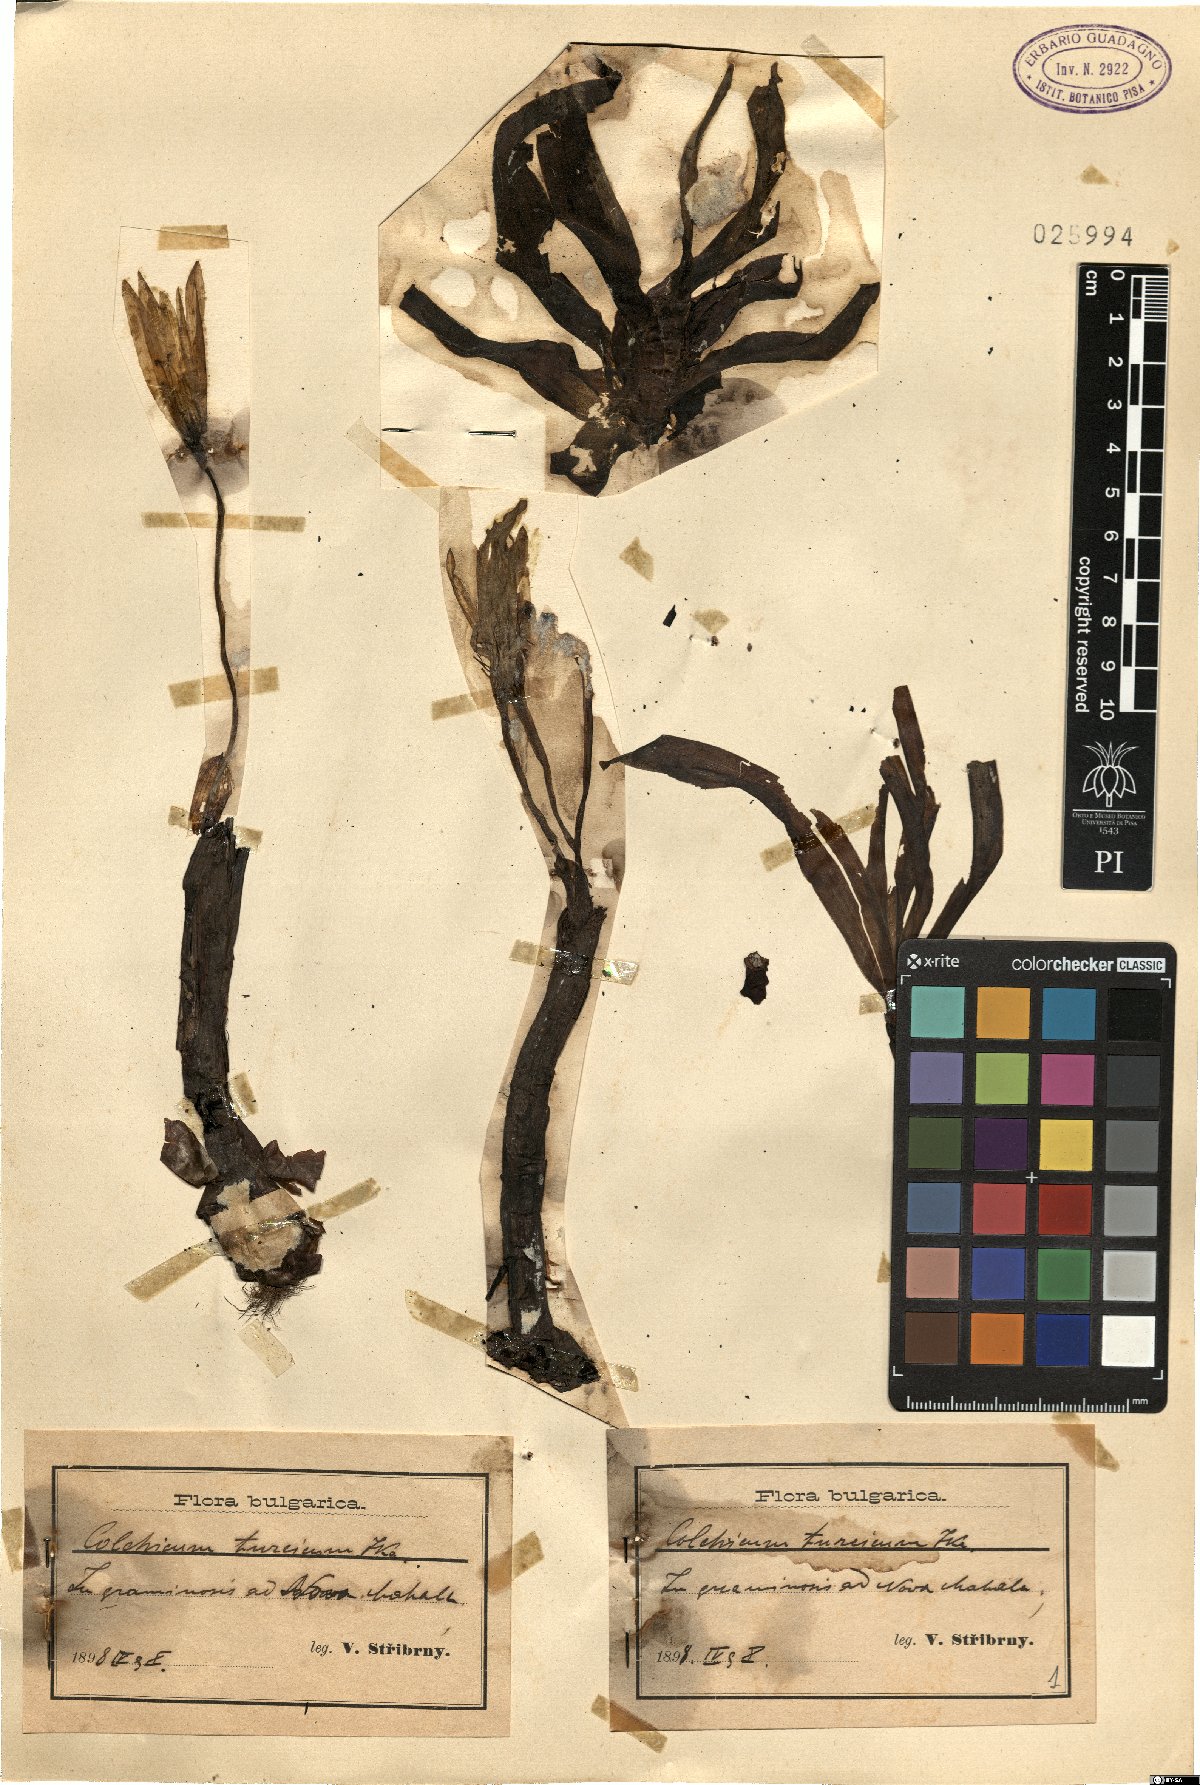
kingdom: Plantae
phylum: Tracheophyta
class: Liliopsida
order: Liliales
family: Colchicaceae
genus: Colchicum
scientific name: Colchicum turcicum
